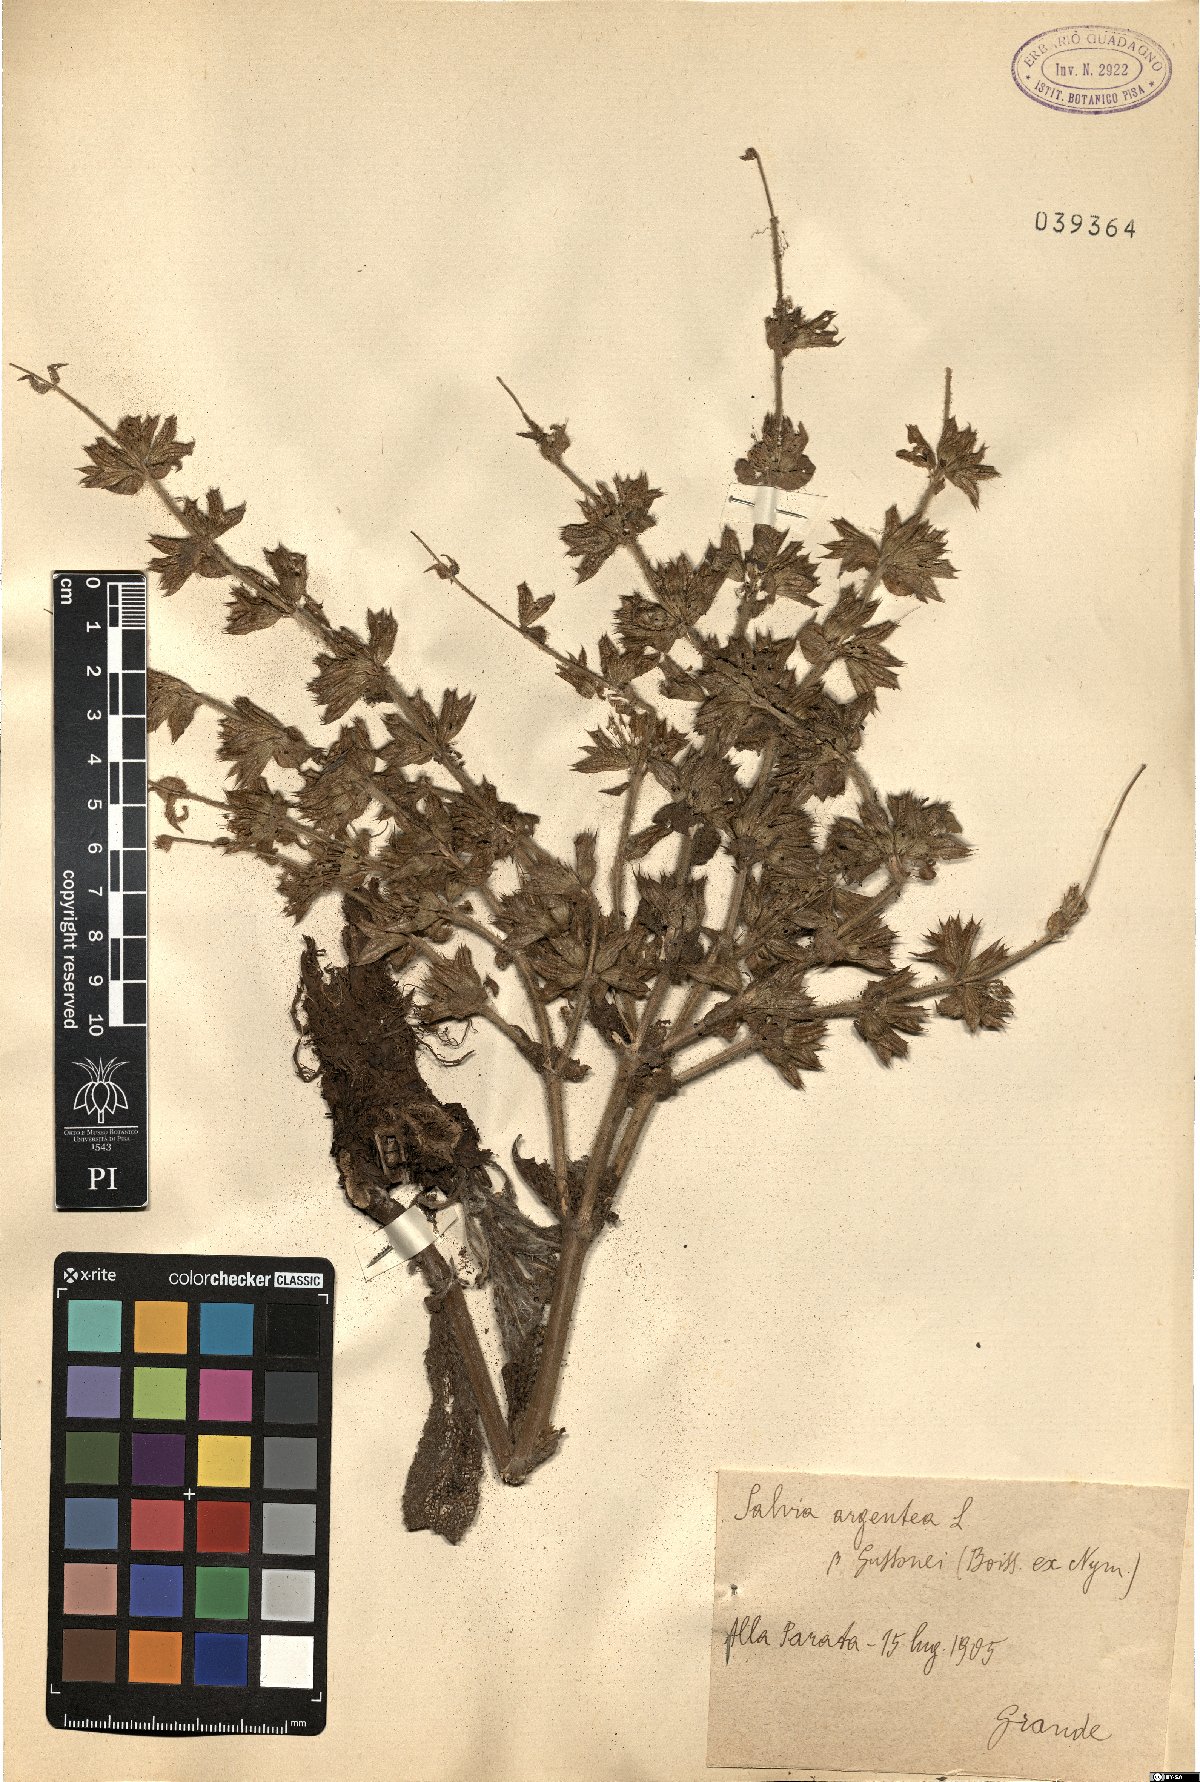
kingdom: Plantae
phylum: Tracheophyta
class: Magnoliopsida
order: Lamiales
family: Lamiaceae
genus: Salvia
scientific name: Salvia argentea
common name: Silver sage
